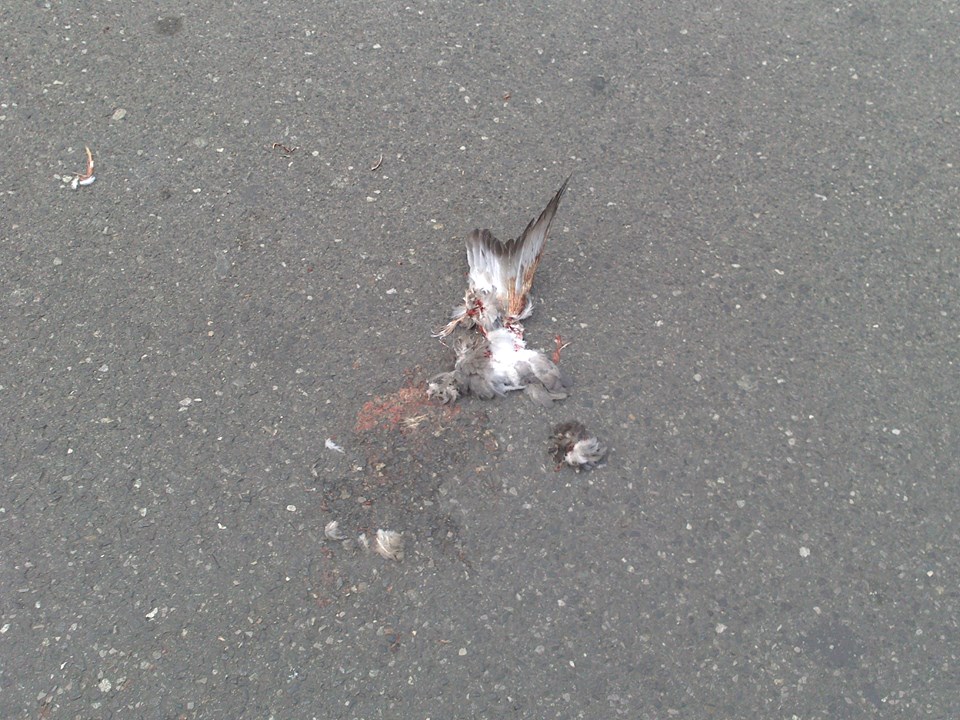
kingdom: Animalia
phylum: Chordata
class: Aves
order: Columbiformes
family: Columbidae
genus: Columba
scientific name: Columba livia
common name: Rock pigeon
